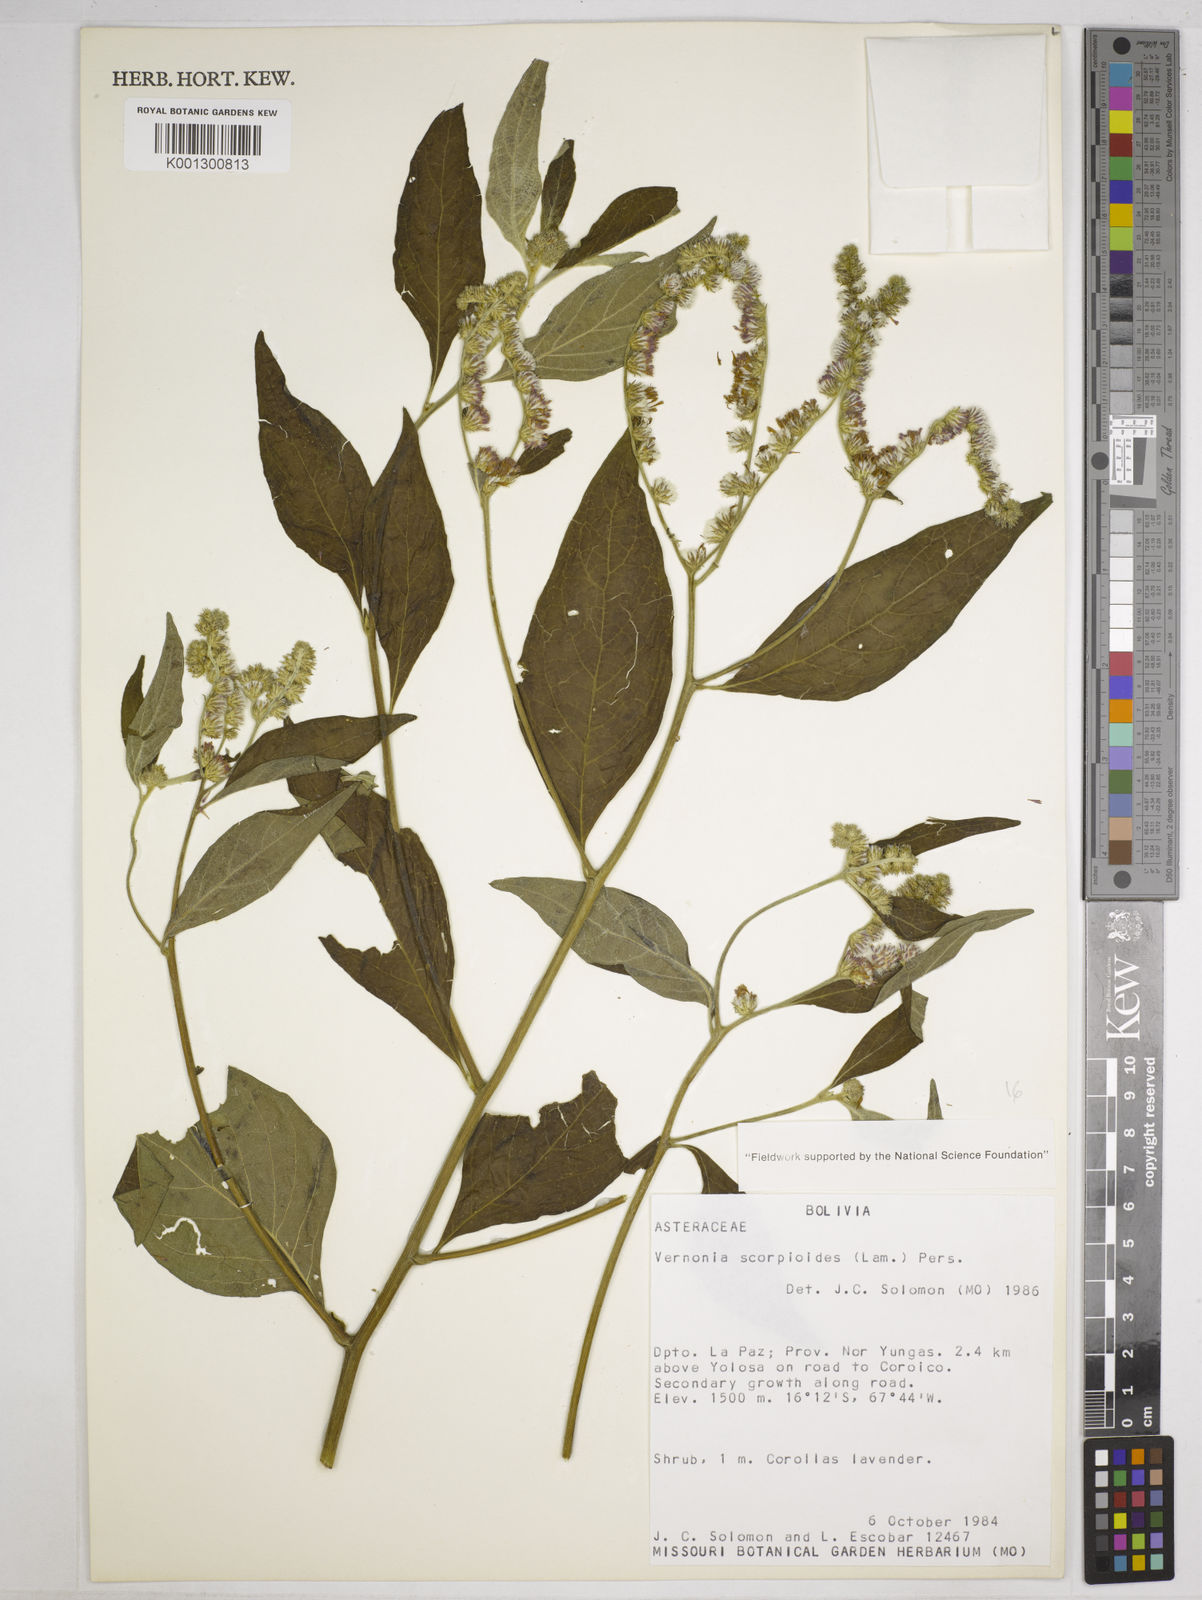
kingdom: Plantae
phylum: Tracheophyta
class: Magnoliopsida
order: Asterales
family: Asteraceae
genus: Cyrtocymura
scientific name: Cyrtocymura scorpioides
